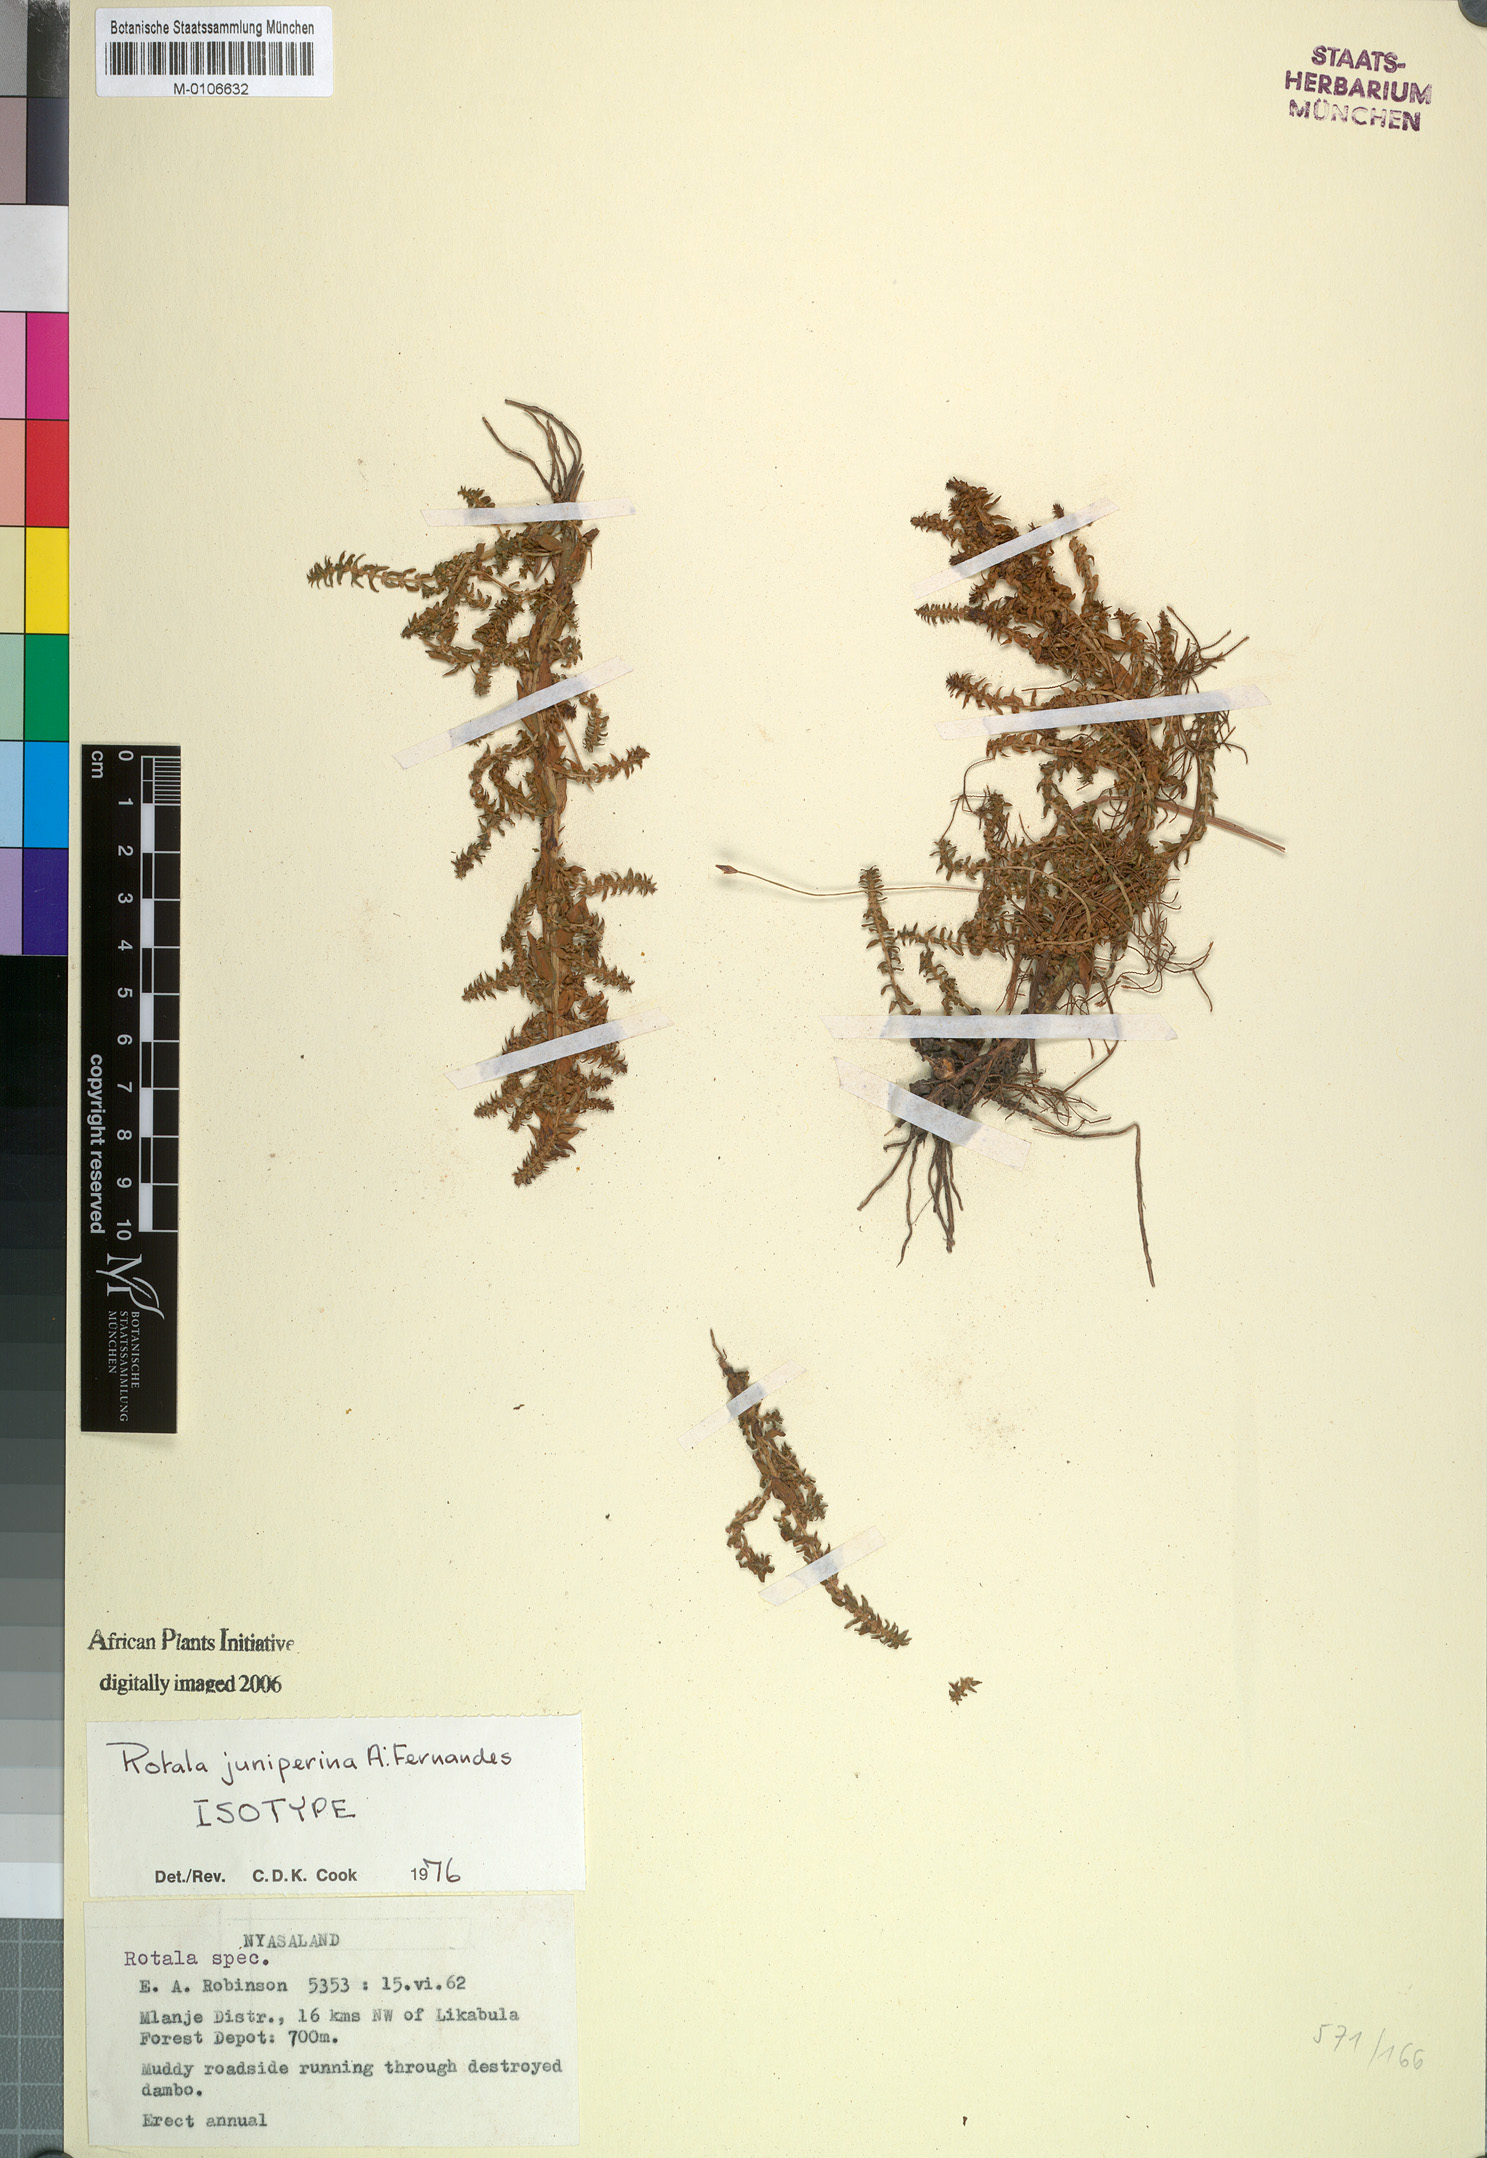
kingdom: Plantae
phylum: Tracheophyta
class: Magnoliopsida
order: Myrtales
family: Lythraceae
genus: Rotala
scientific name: Rotala juniperina
